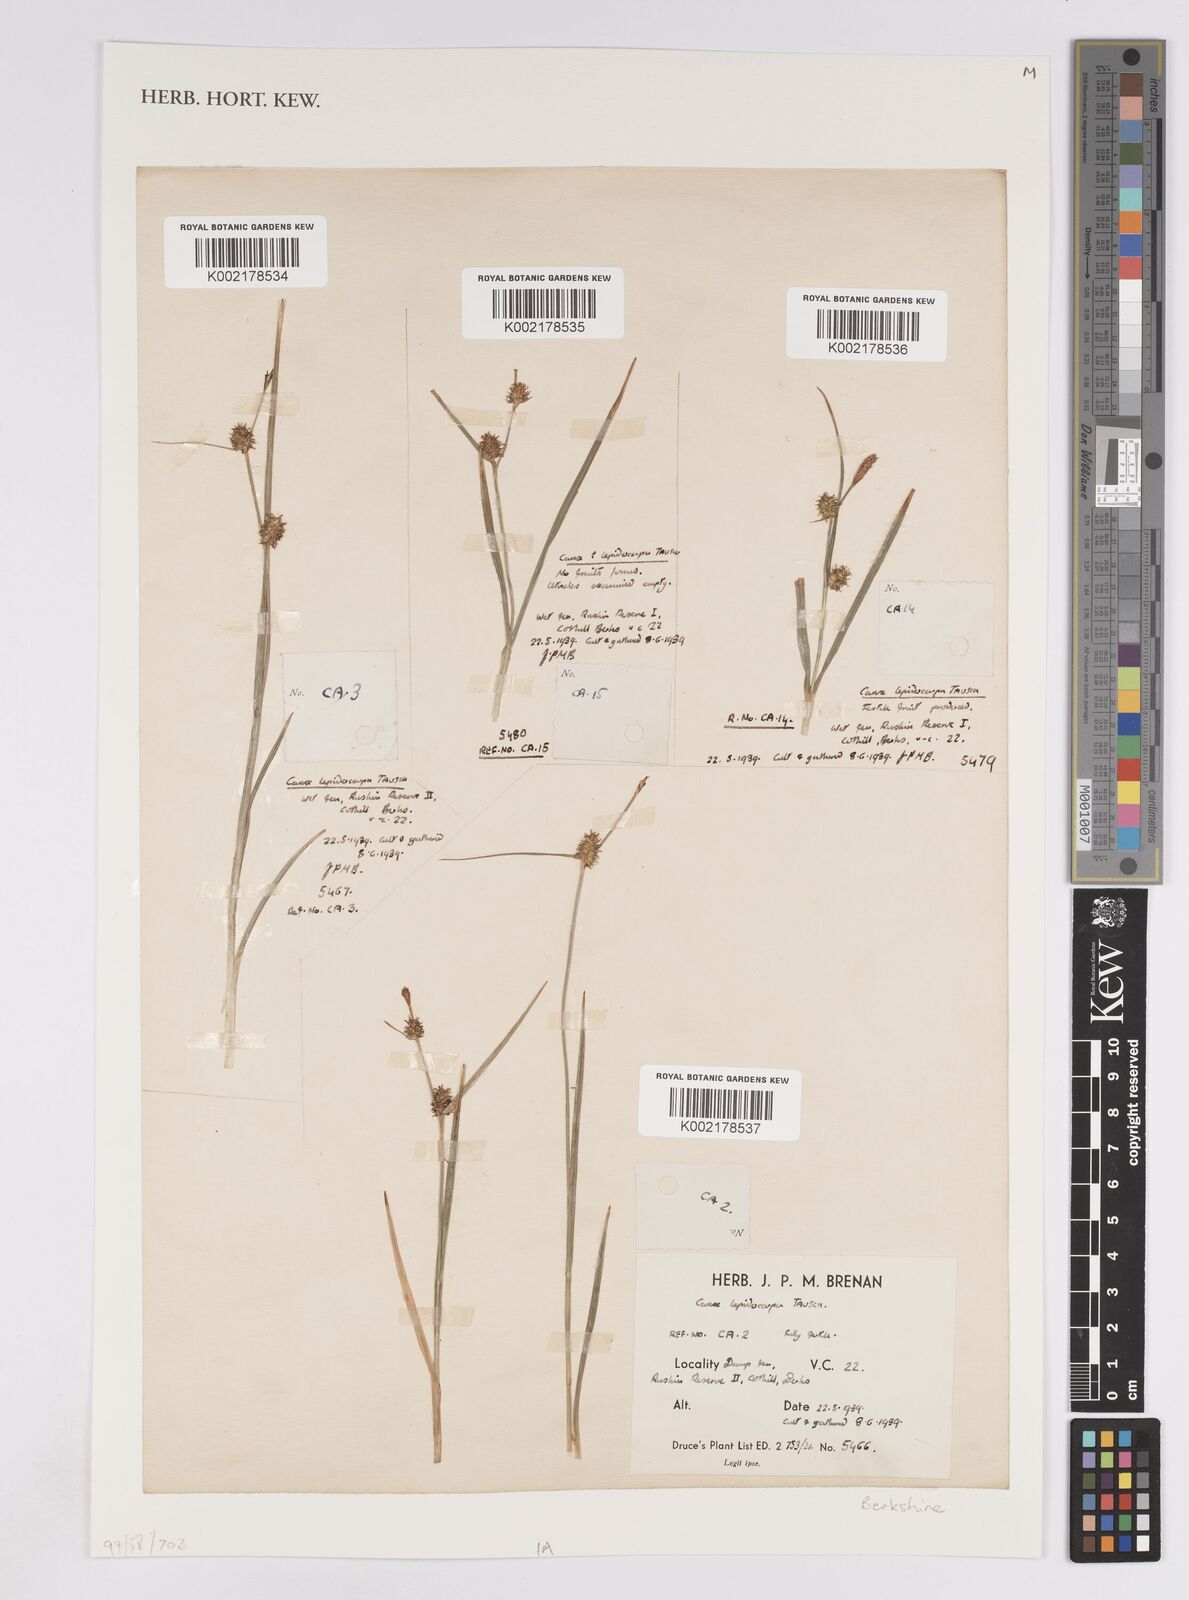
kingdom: Plantae
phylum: Tracheophyta
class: Liliopsida
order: Poales
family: Cyperaceae
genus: Carex
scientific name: Carex lepidocarpa
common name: Long-stalked yellow-sedge
